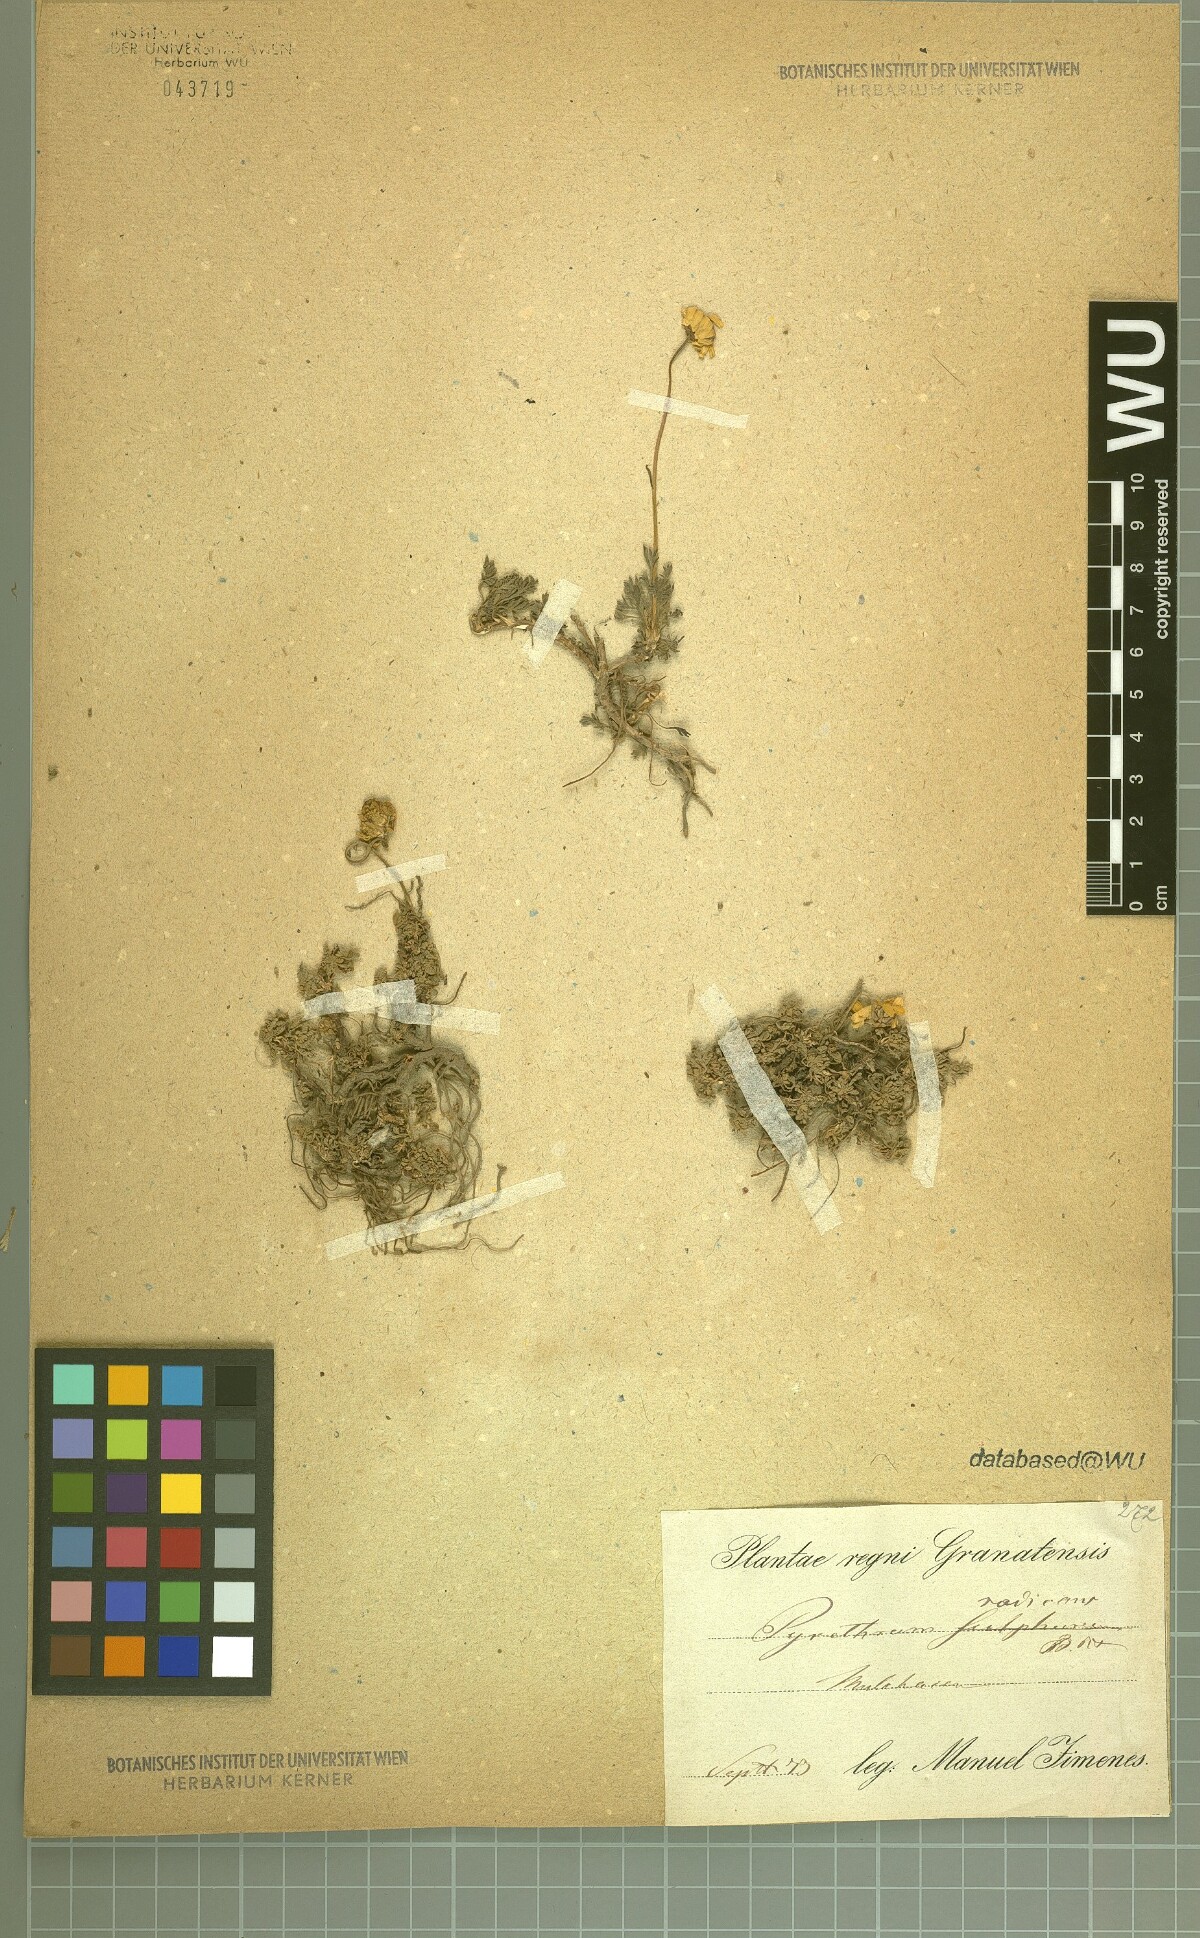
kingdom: Plantae
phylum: Tracheophyta
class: Magnoliopsida
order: Asterales
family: Asteraceae
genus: Leucanthemopsis
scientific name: Leucanthemopsis pectinata
